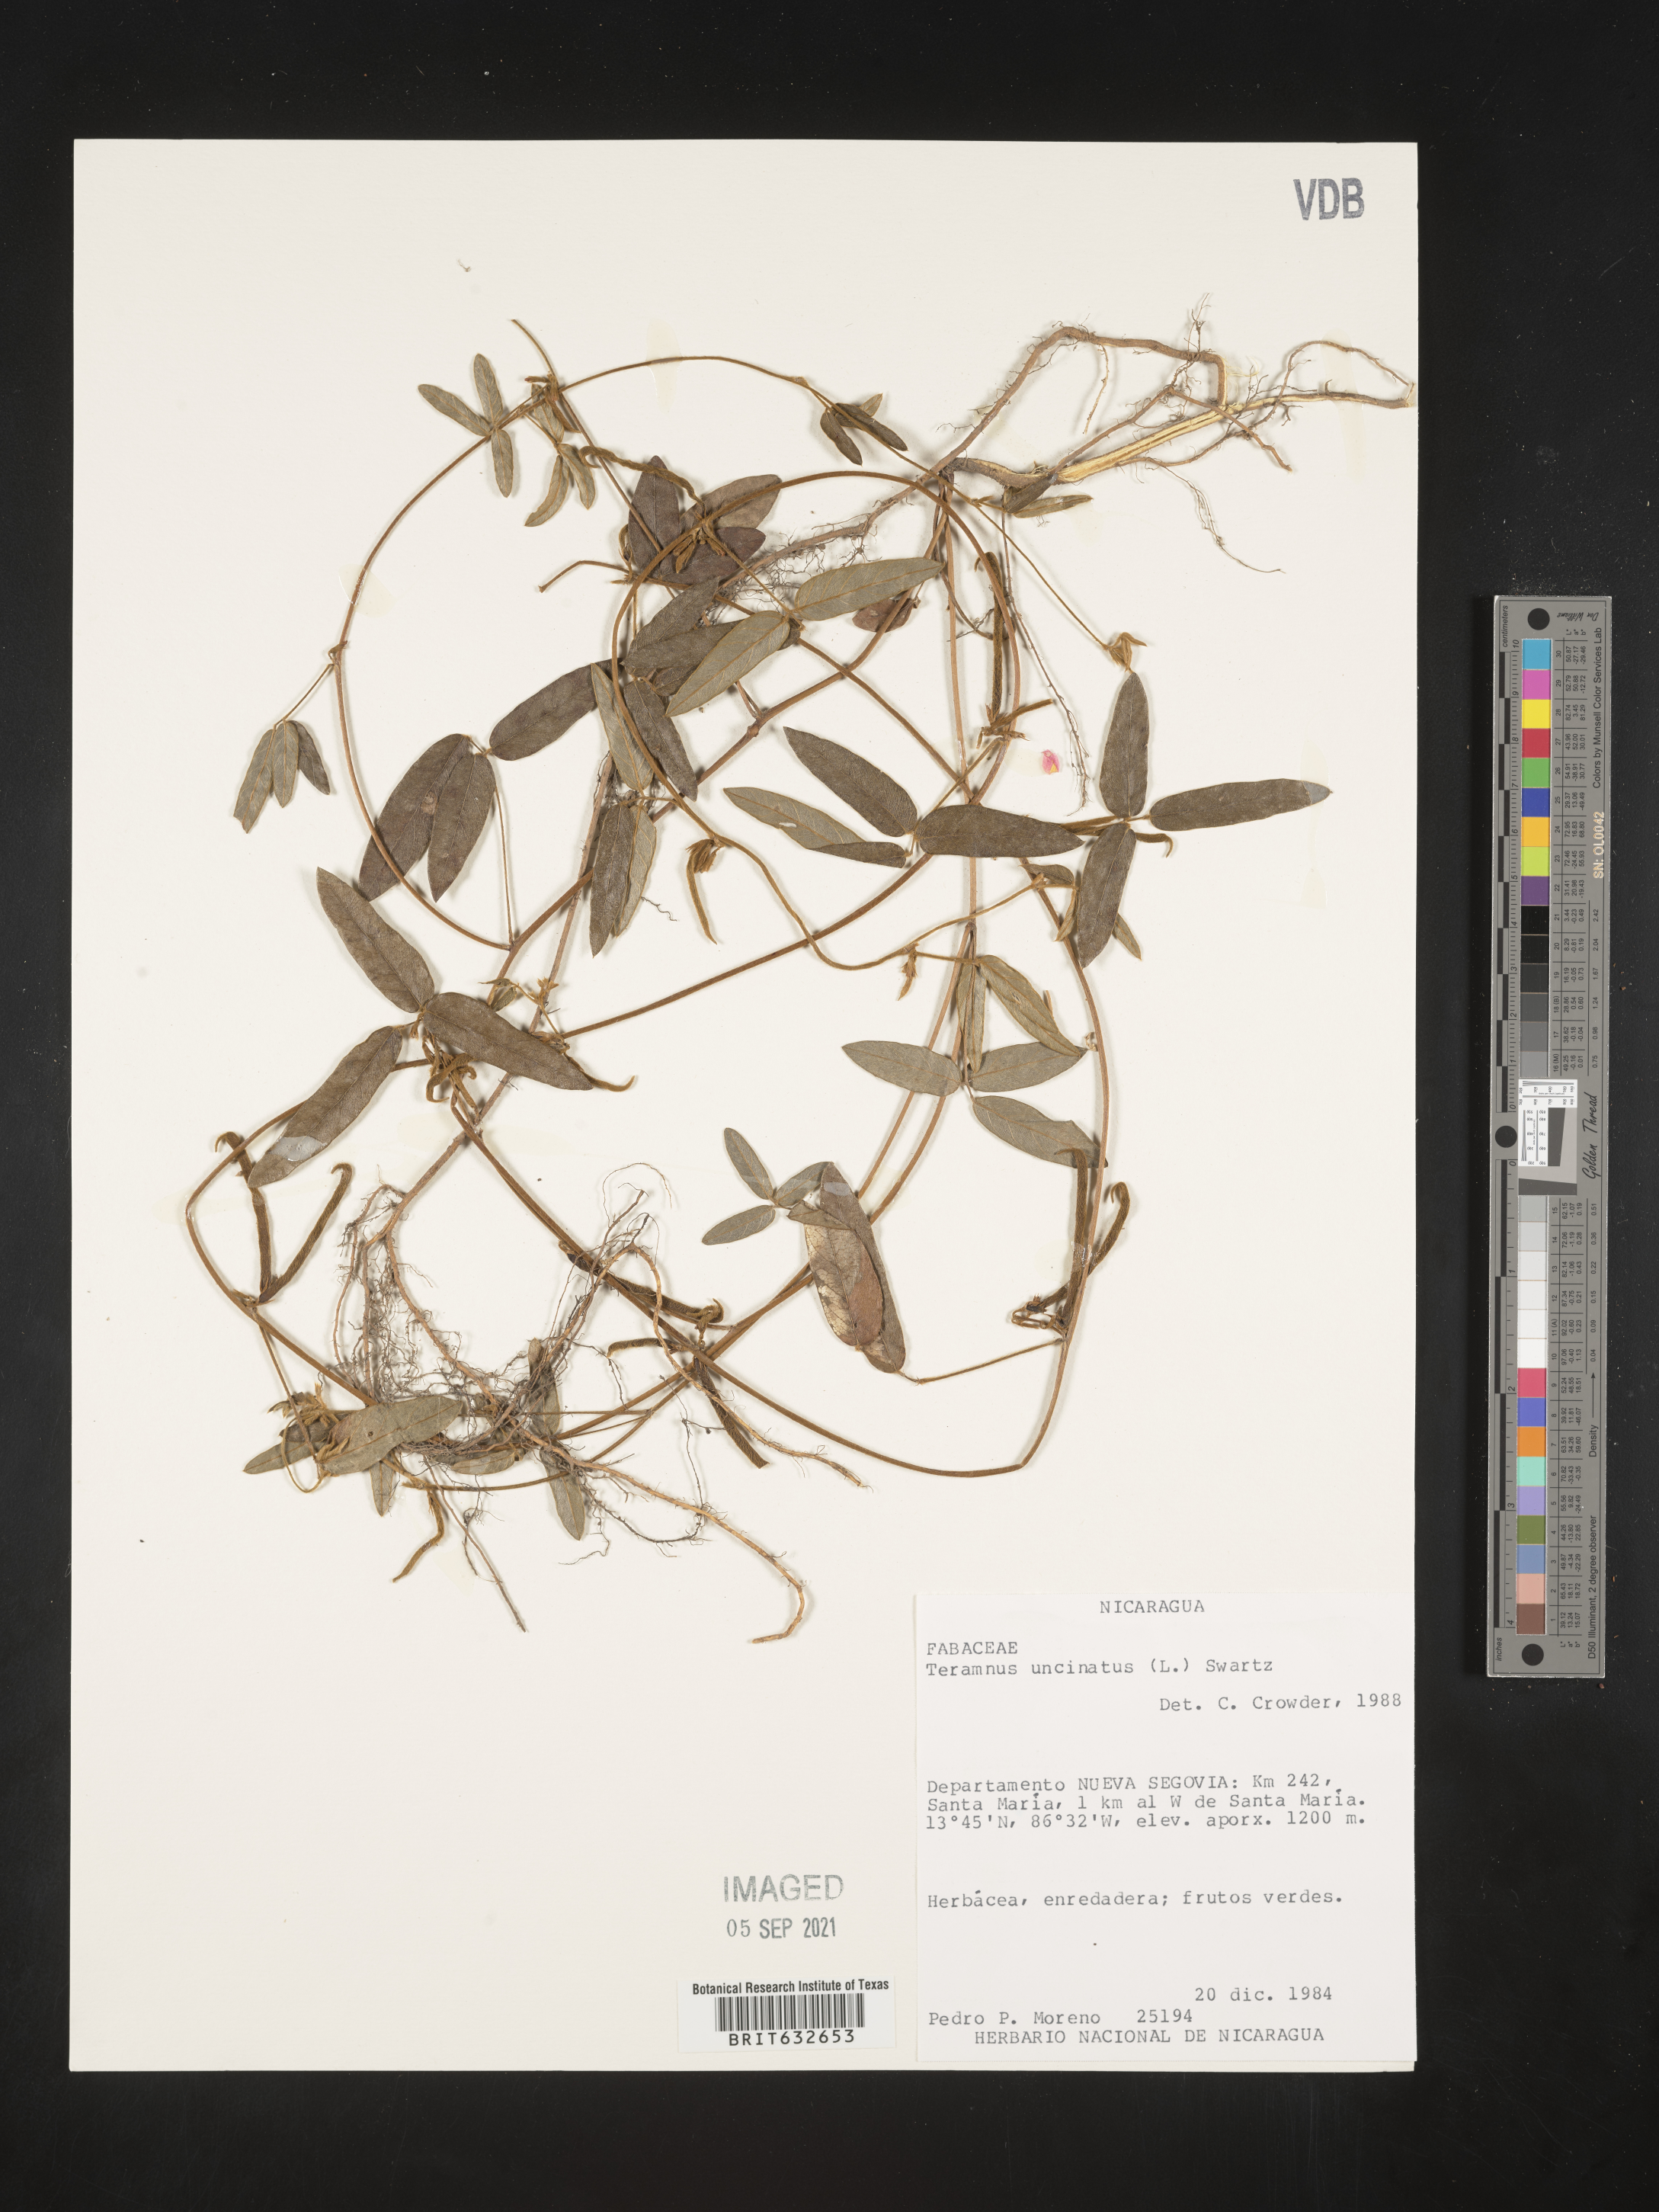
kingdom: Plantae
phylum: Tracheophyta
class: Magnoliopsida
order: Fabales
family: Fabaceae
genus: Teramnus
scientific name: Teramnus
